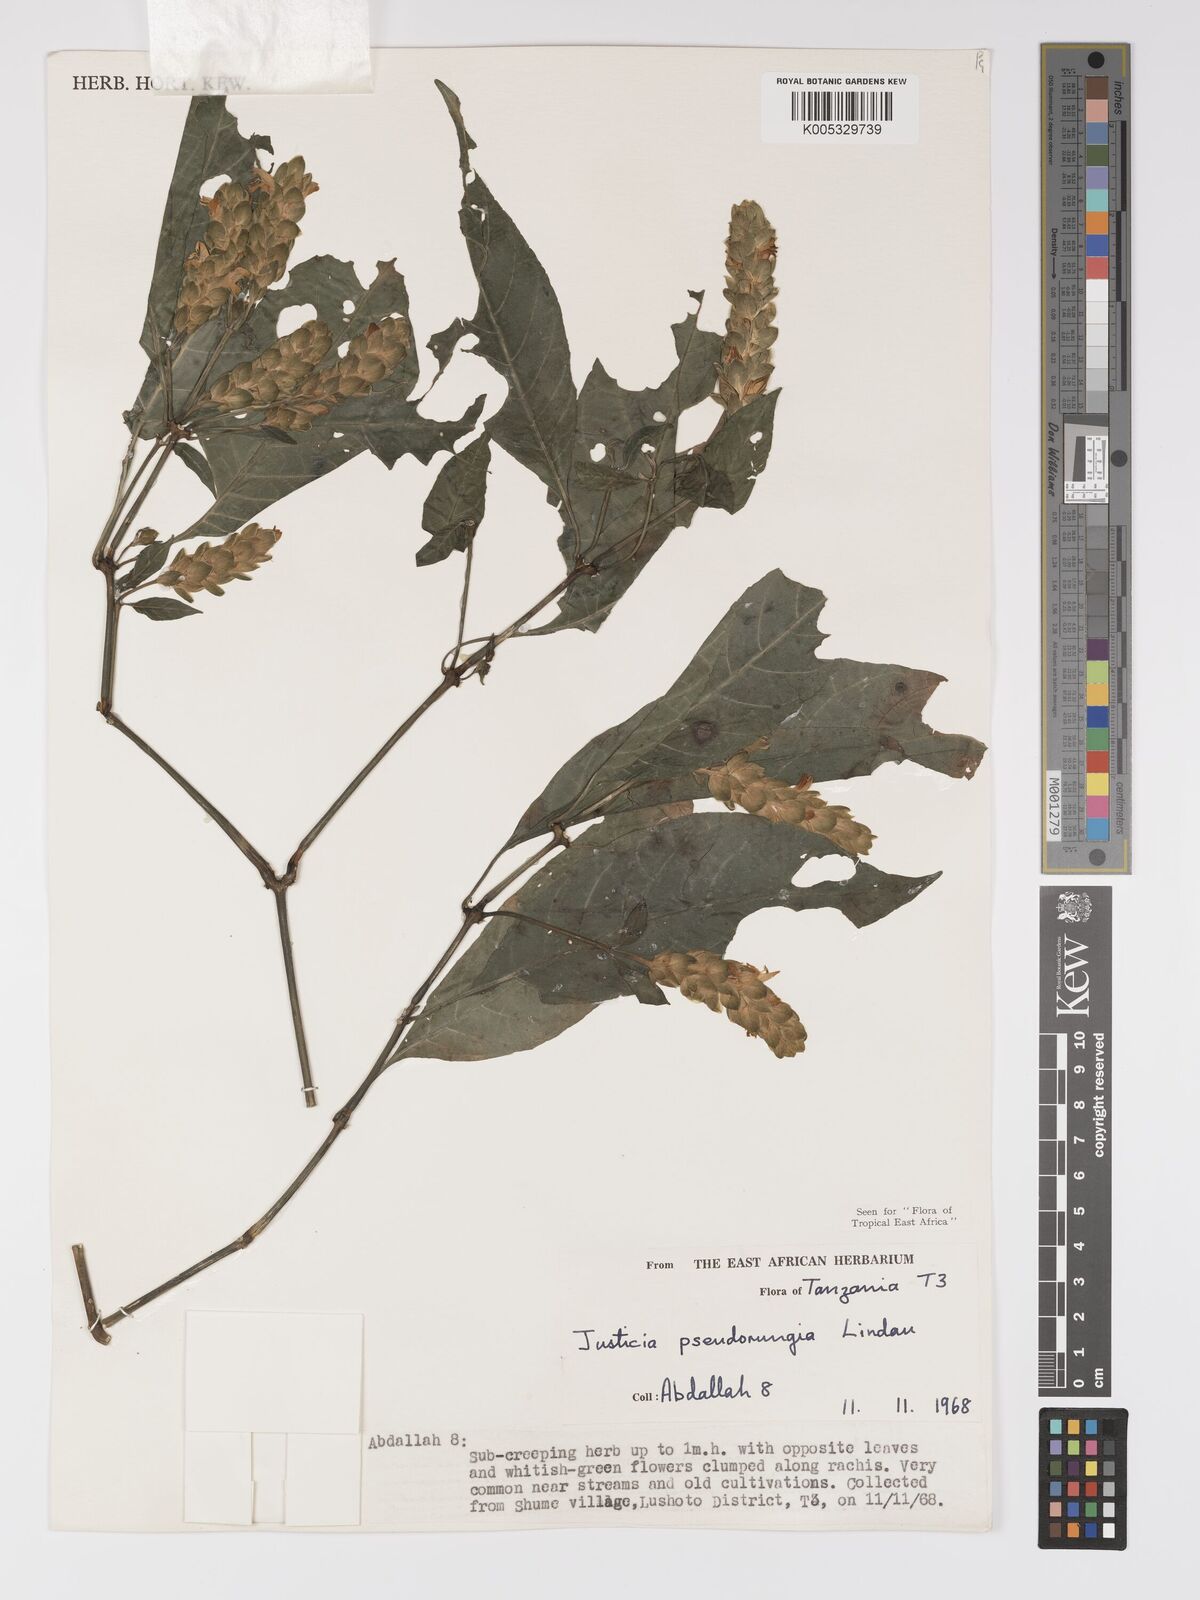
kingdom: Plantae
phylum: Tracheophyta
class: Magnoliopsida
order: Lamiales
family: Acanthaceae
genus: Justicia
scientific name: Justicia pseudorungia
